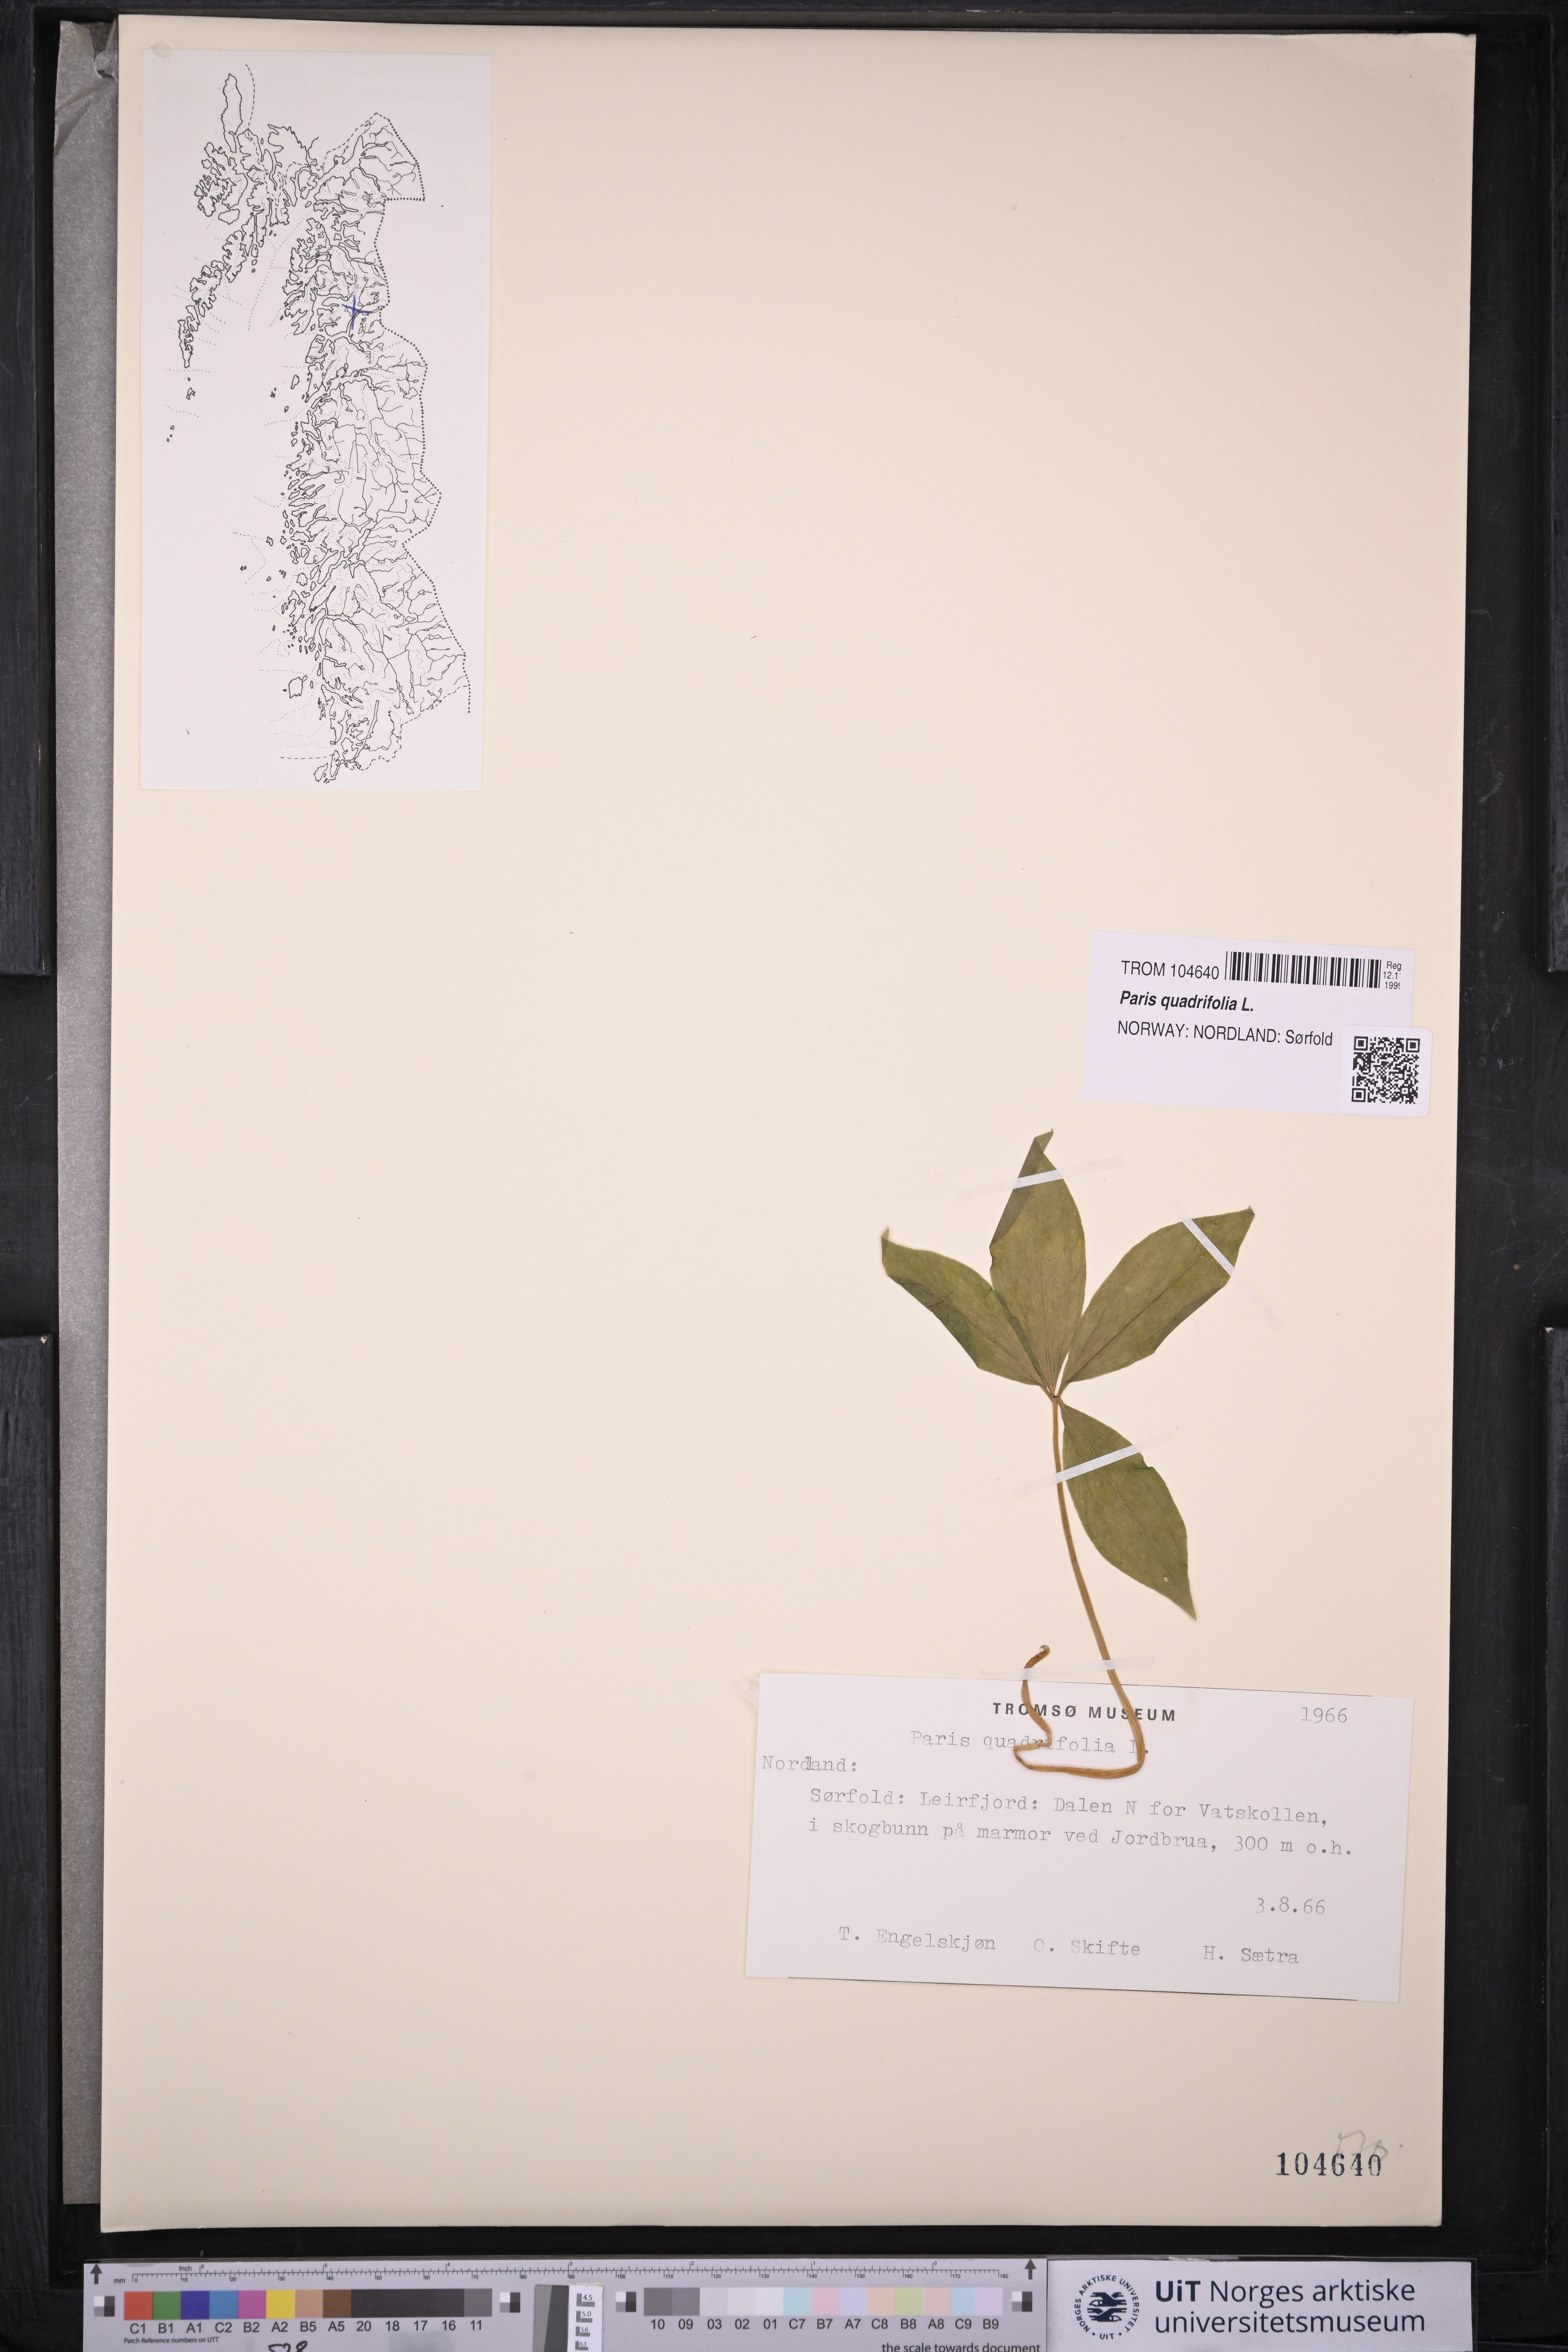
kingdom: Plantae
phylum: Tracheophyta
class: Liliopsida
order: Liliales
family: Melanthiaceae
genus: Paris
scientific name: Paris quadrifolia
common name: Herb-paris
